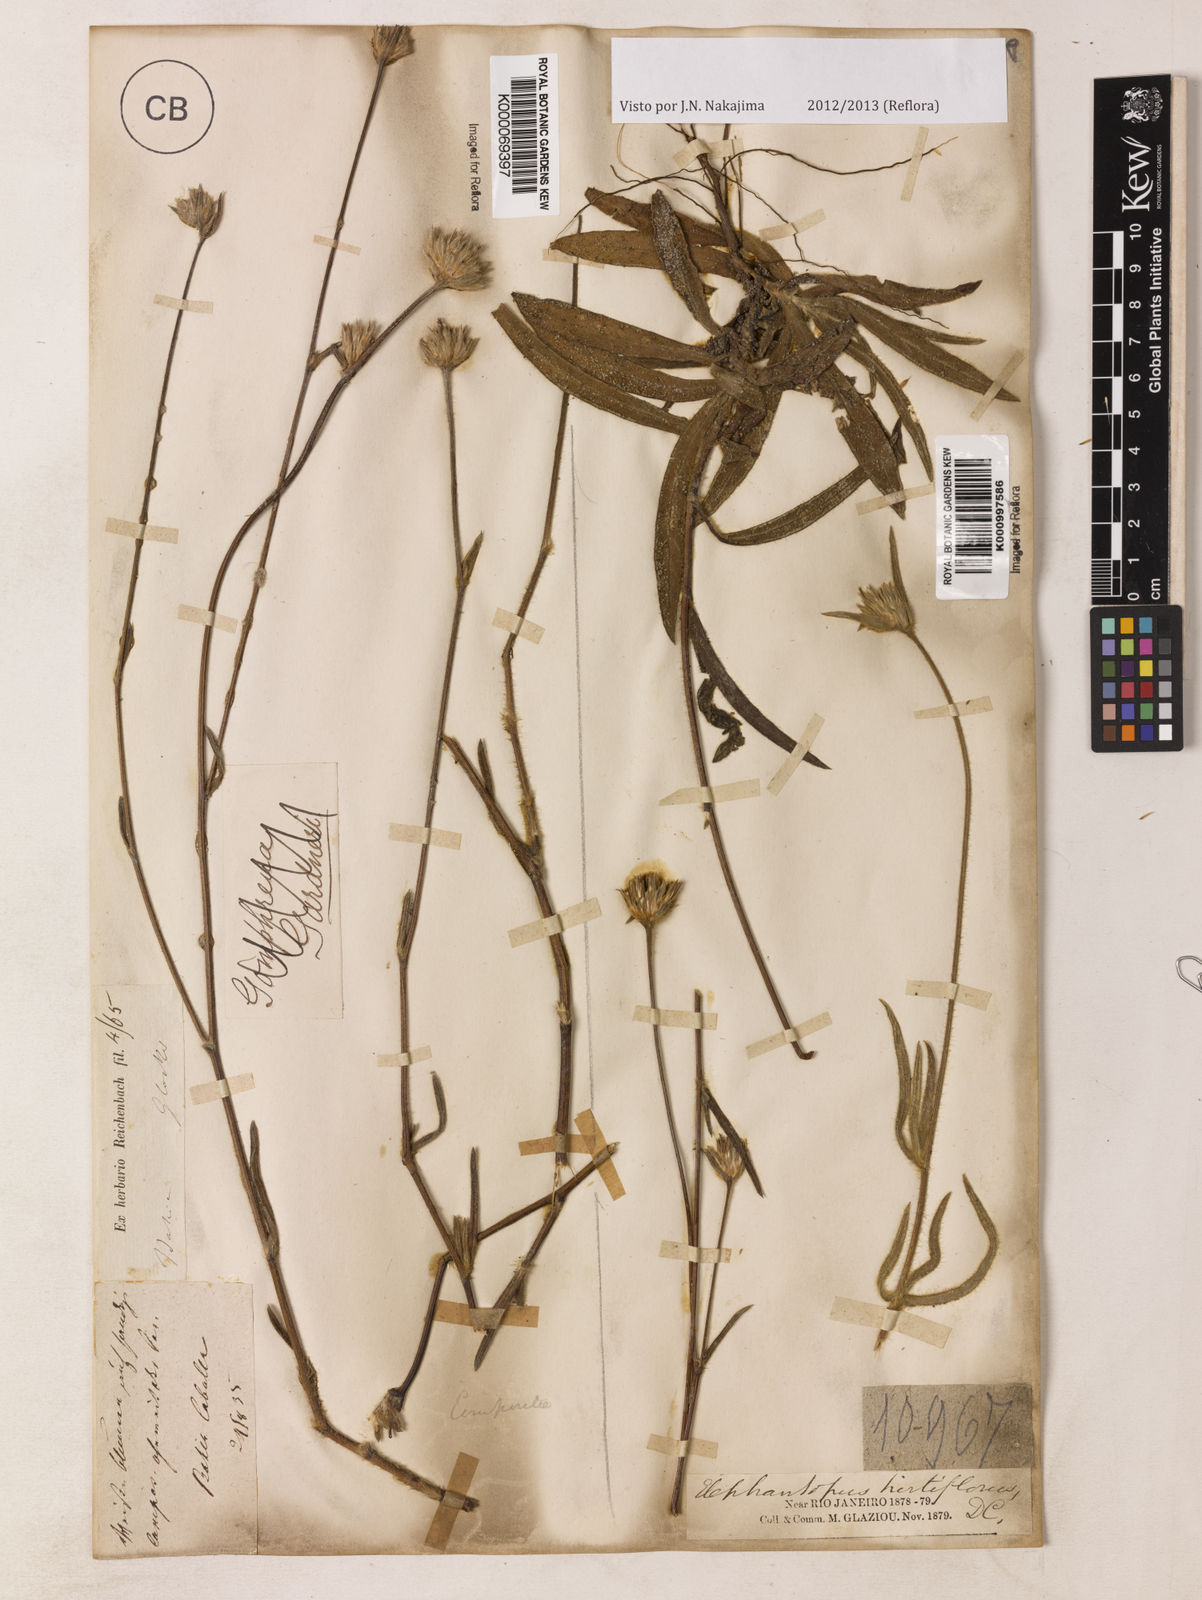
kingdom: Plantae
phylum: Tracheophyta
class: Magnoliopsida
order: Asterales
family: Asteraceae
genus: Elephantopus
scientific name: Elephantopus hirtiflorus
